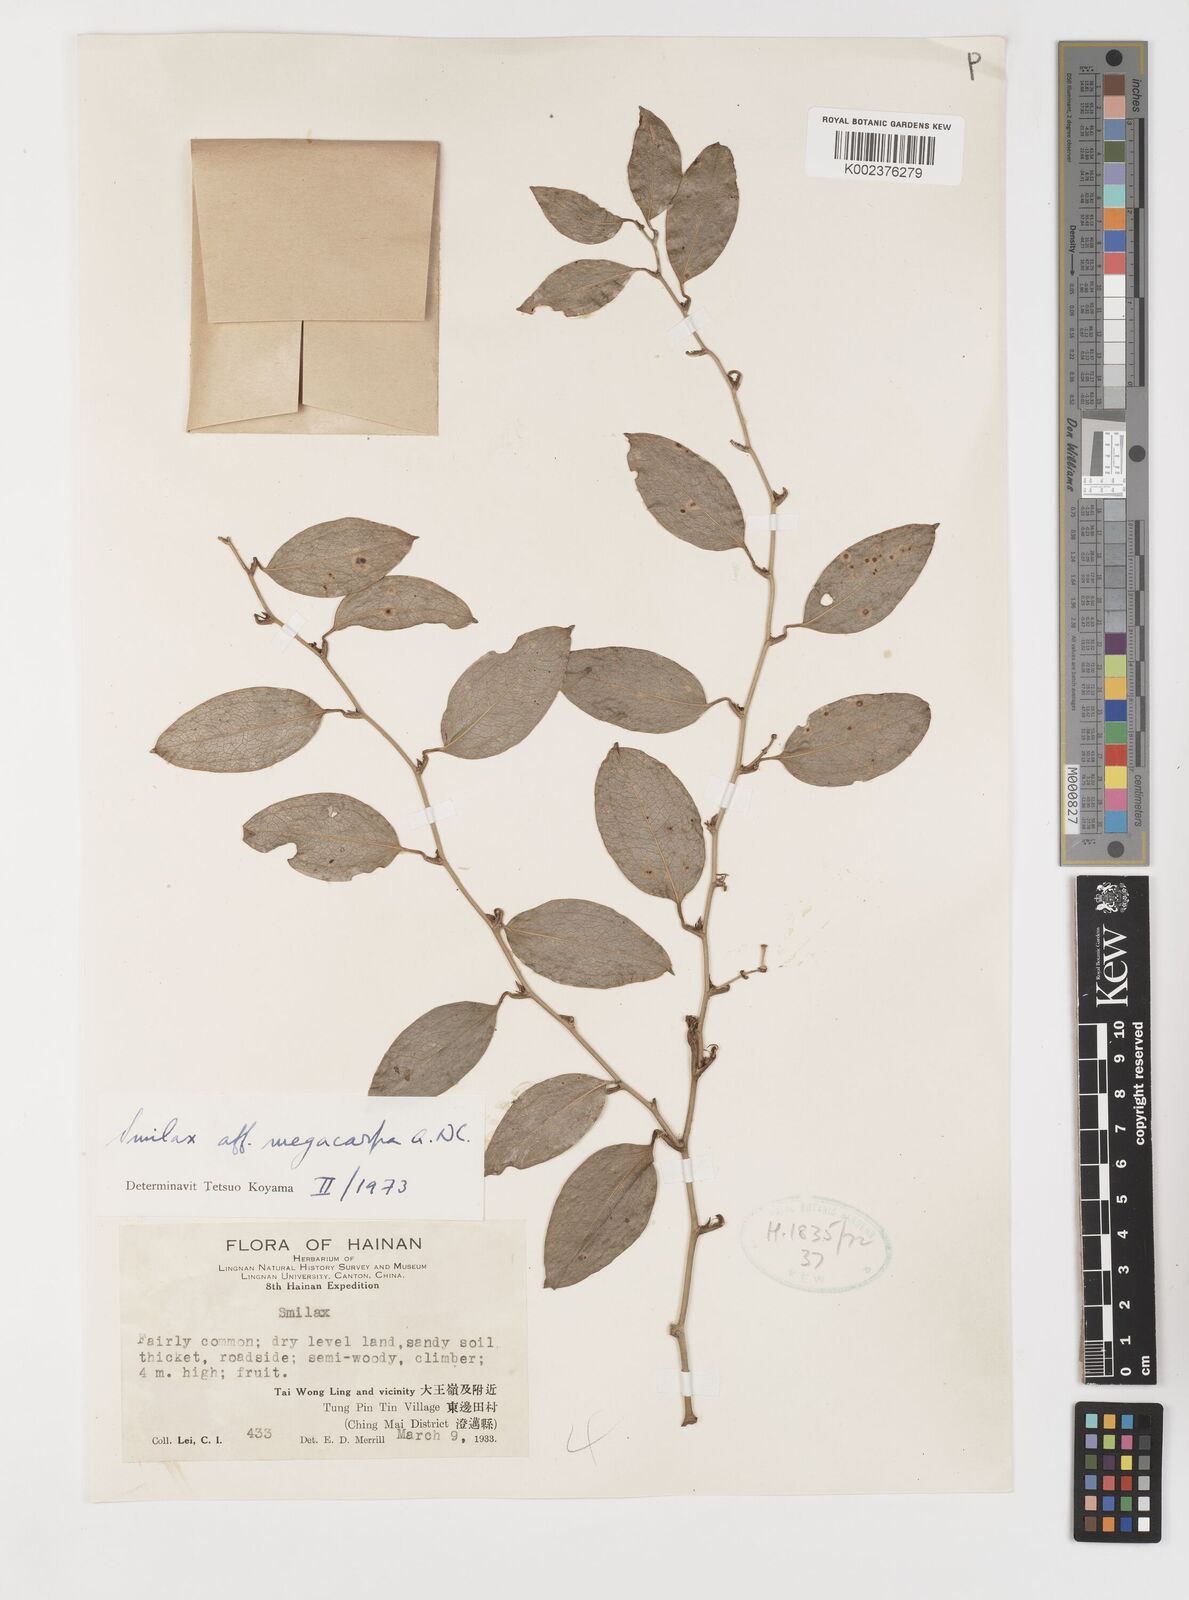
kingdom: Plantae
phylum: Tracheophyta
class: Liliopsida
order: Liliales
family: Smilacaceae
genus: Smilax
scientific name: Smilax megacarpa
